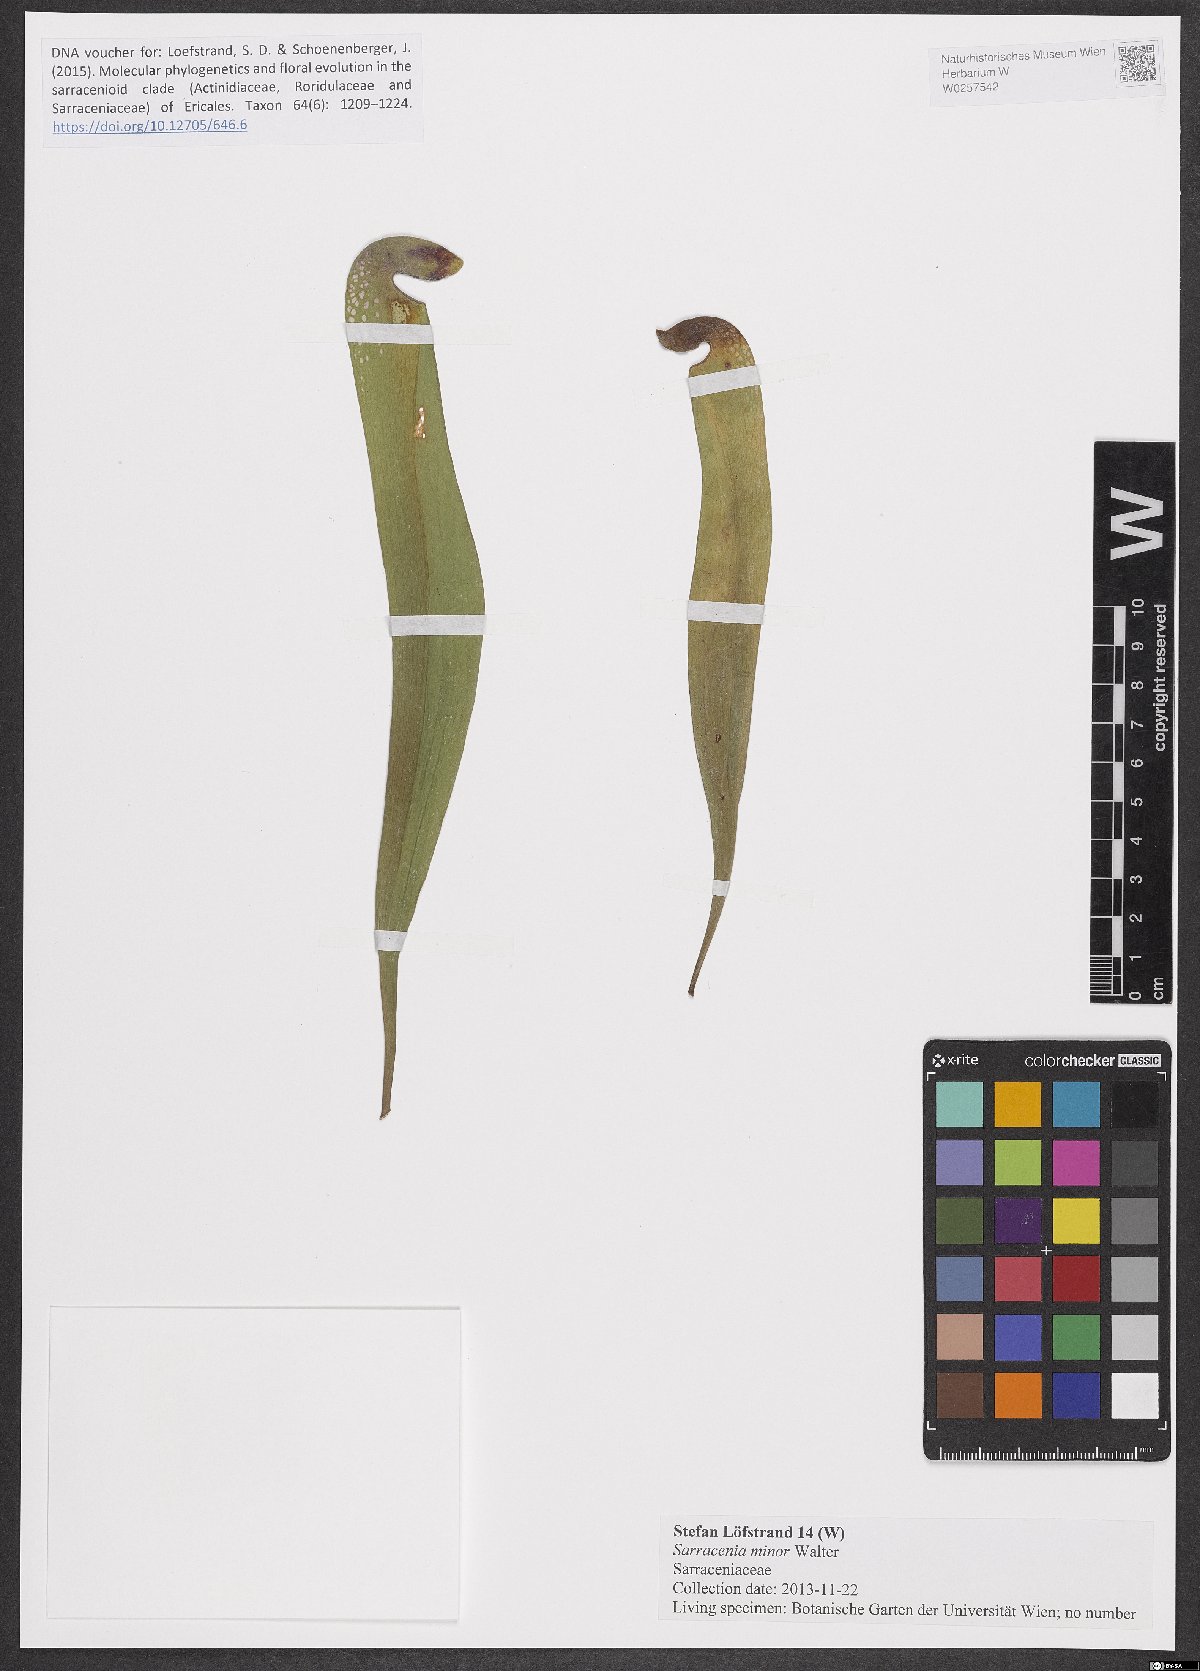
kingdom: Plantae
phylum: Tracheophyta
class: Magnoliopsida
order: Ericales
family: Sarraceniaceae
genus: Sarracenia
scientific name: Sarracenia minor
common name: Rainhat-trumpet
